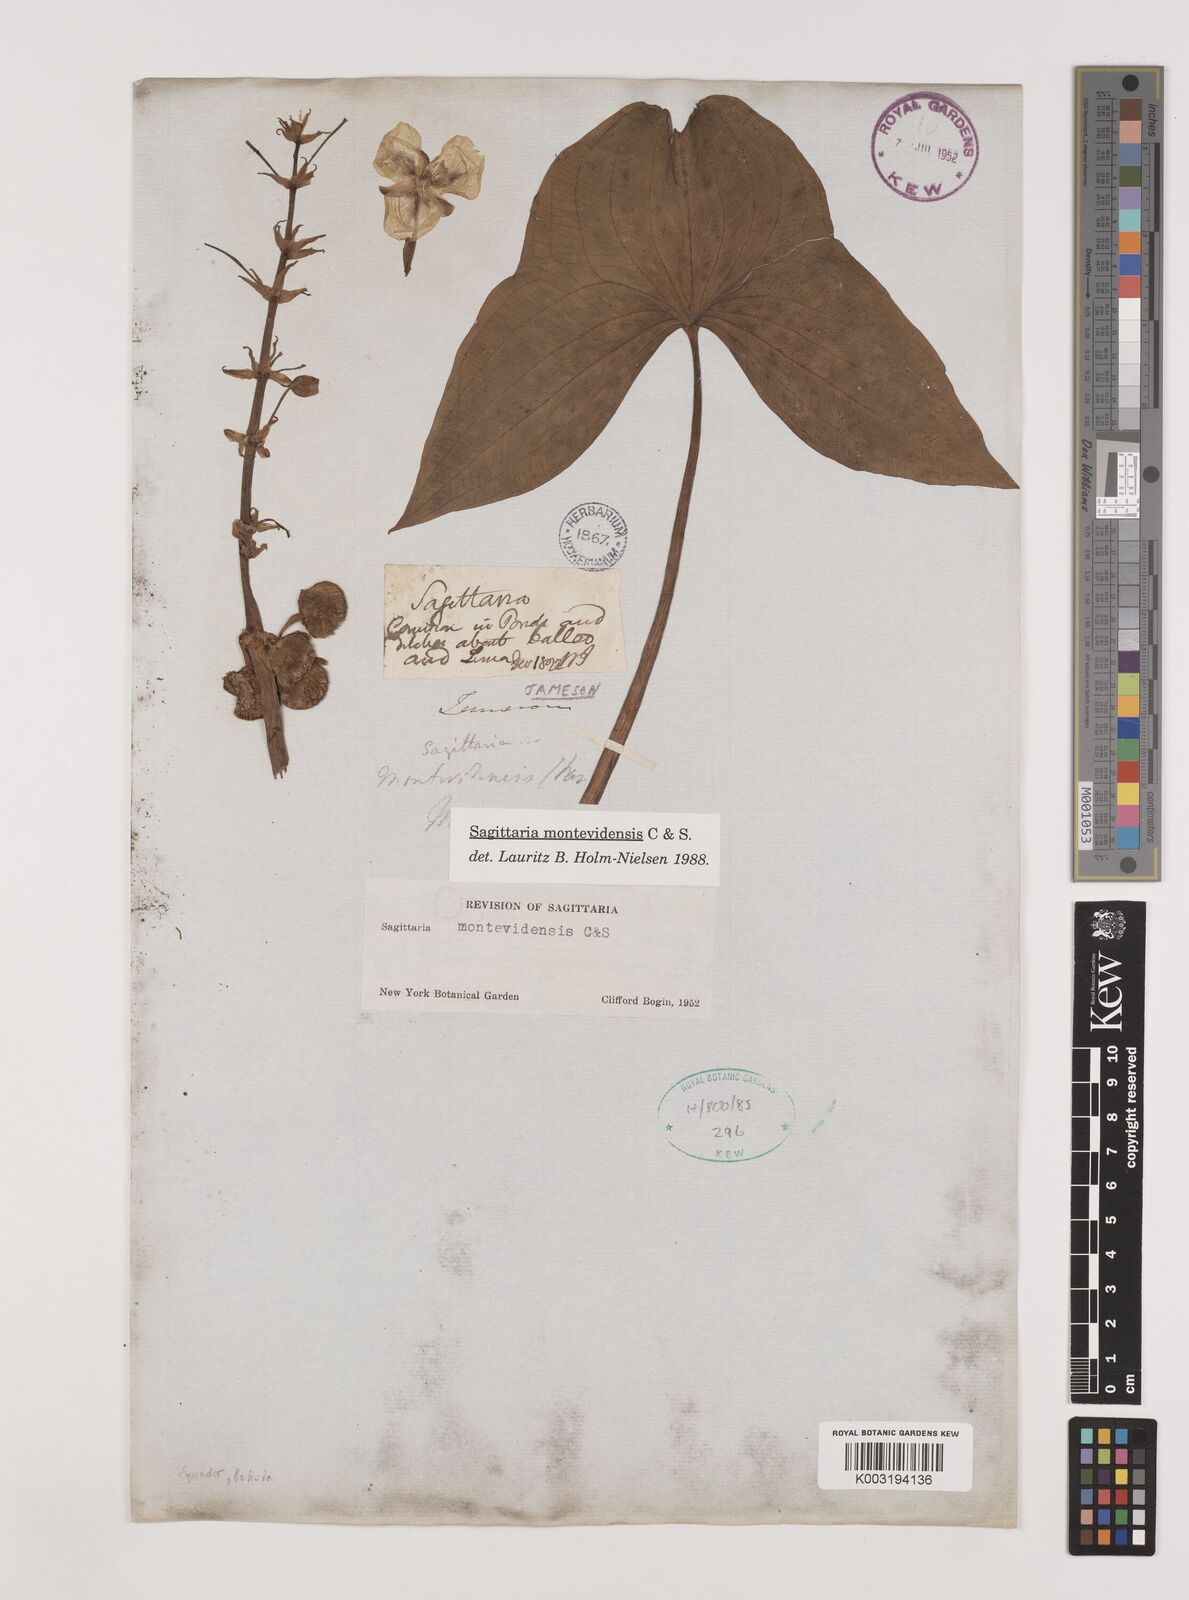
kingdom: Plantae
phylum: Tracheophyta
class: Liliopsida
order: Alismatales
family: Alismataceae
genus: Sagittaria
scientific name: Sagittaria montevidensis
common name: Giant arrowhead
